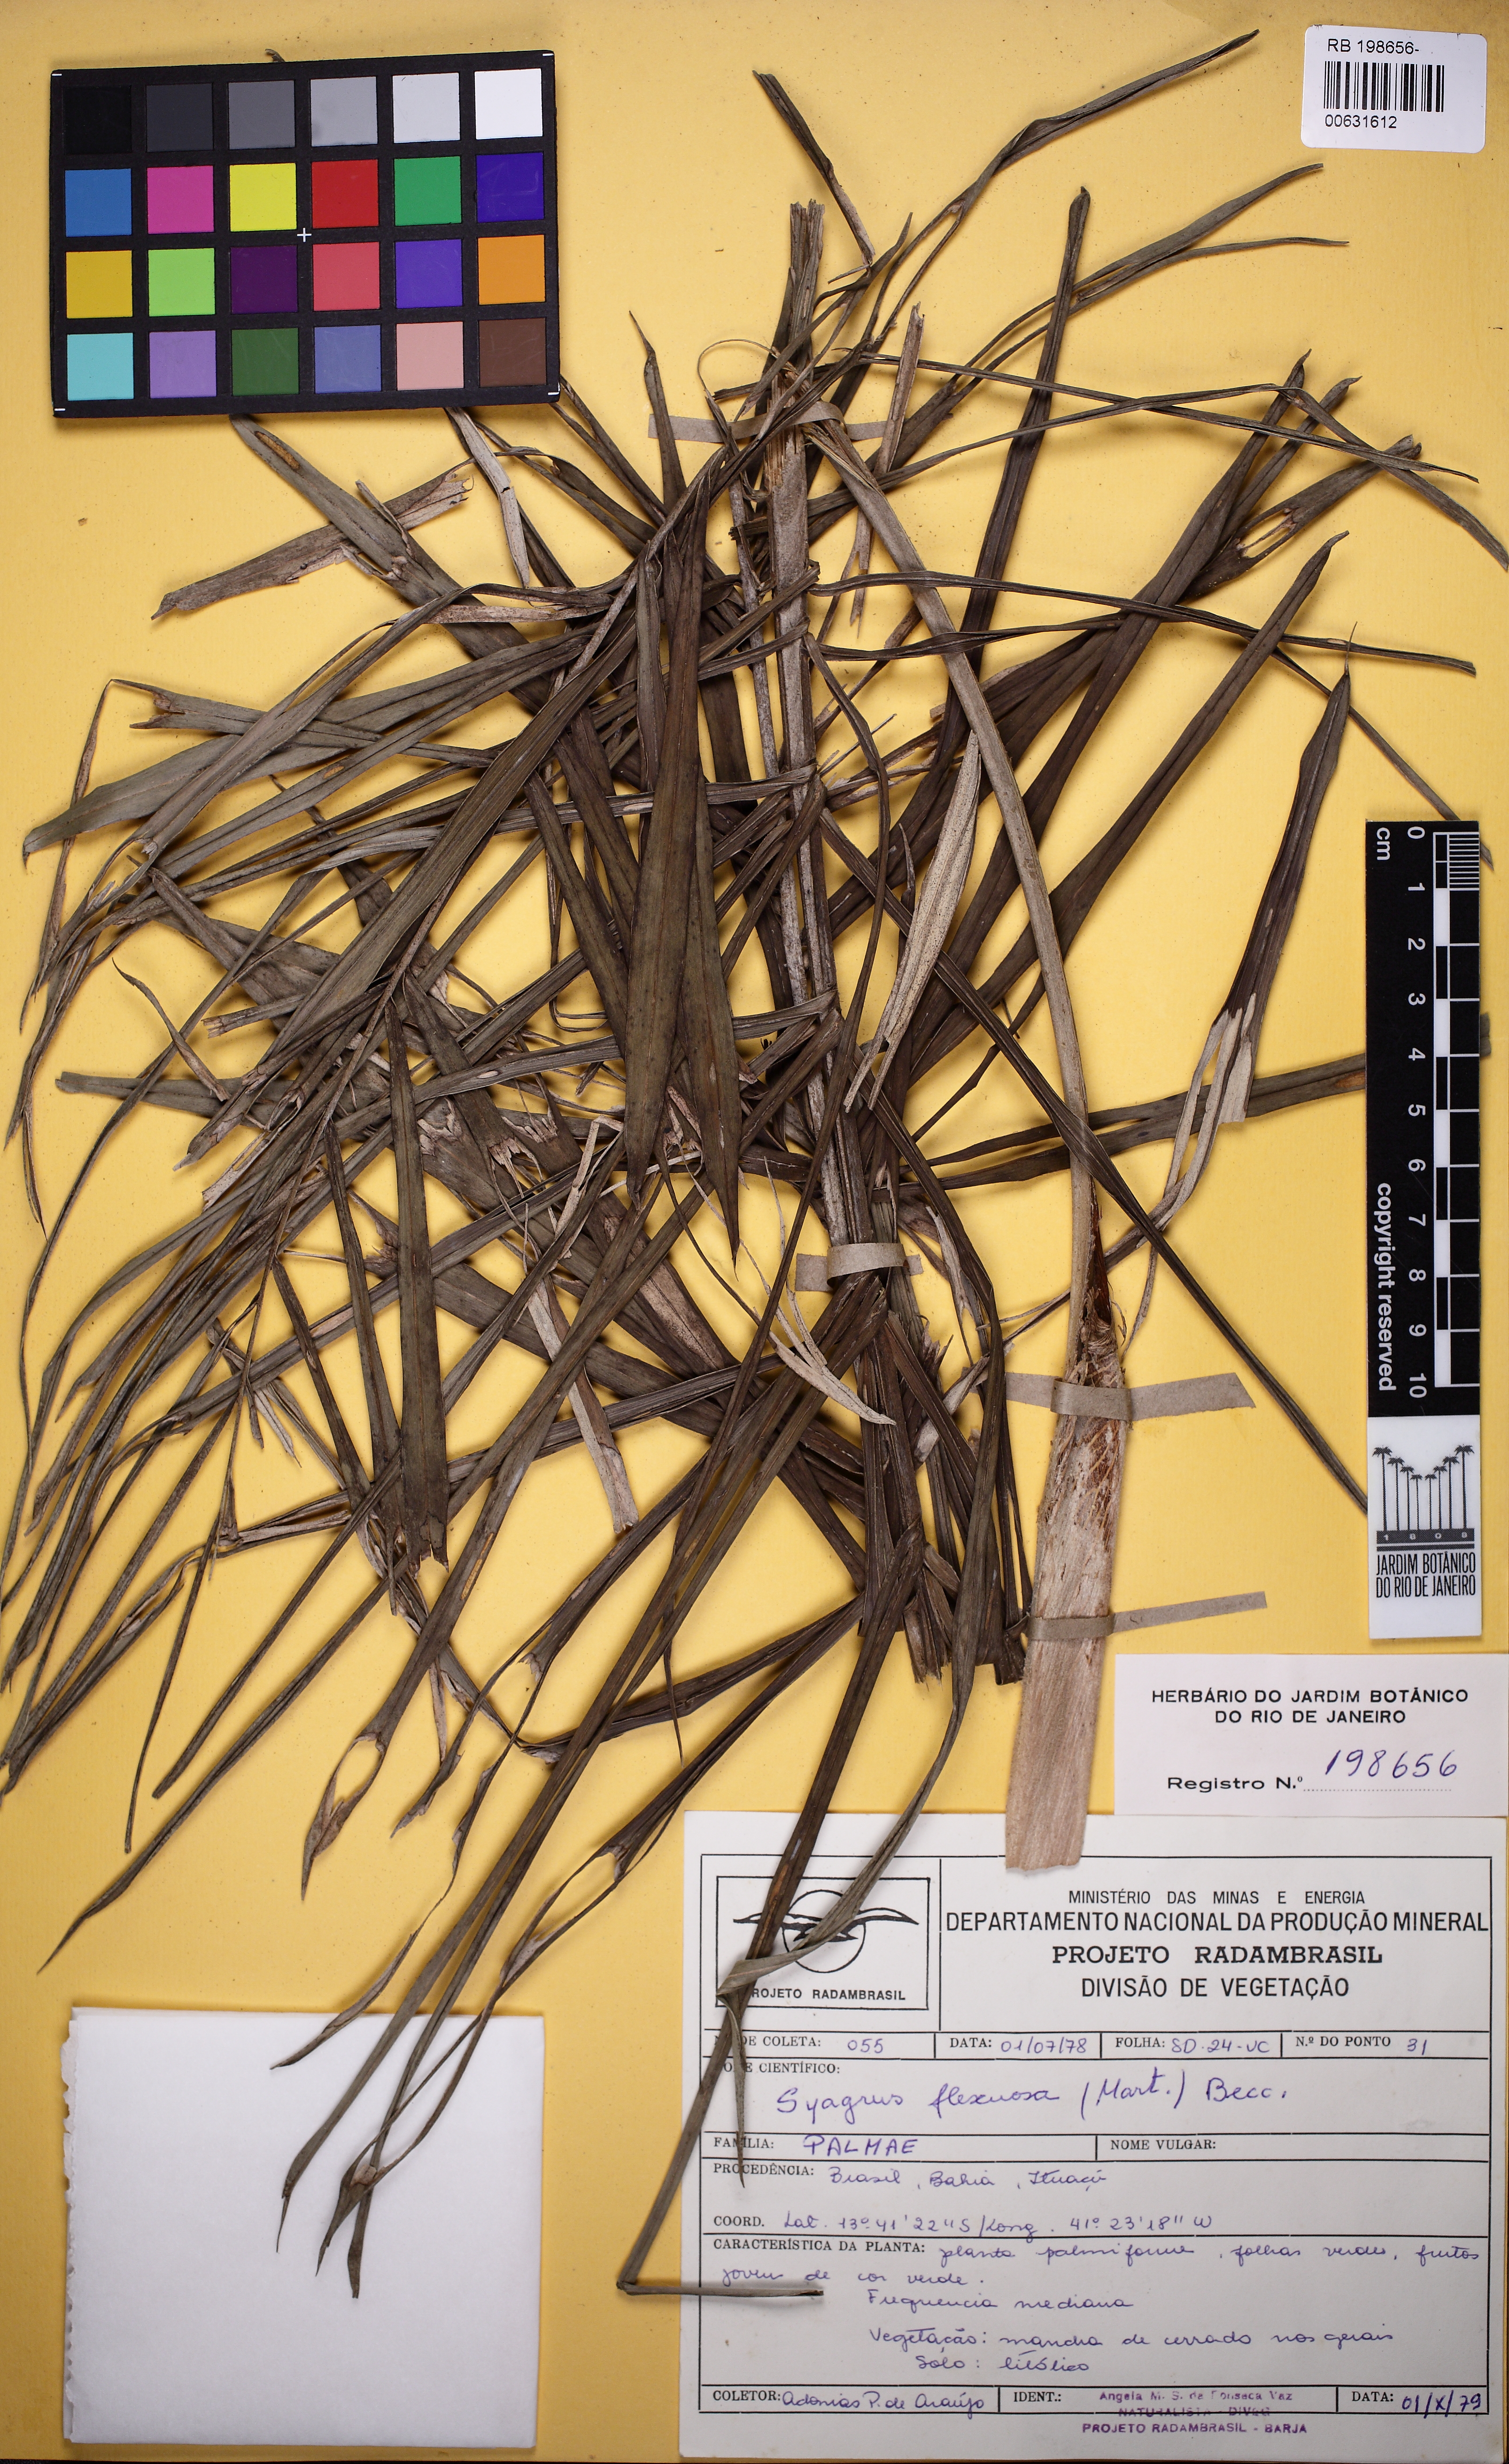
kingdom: Plantae
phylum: Tracheophyta
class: Liliopsida
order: Arecales
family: Arecaceae
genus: Syagrus
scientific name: Syagrus flexuosa
